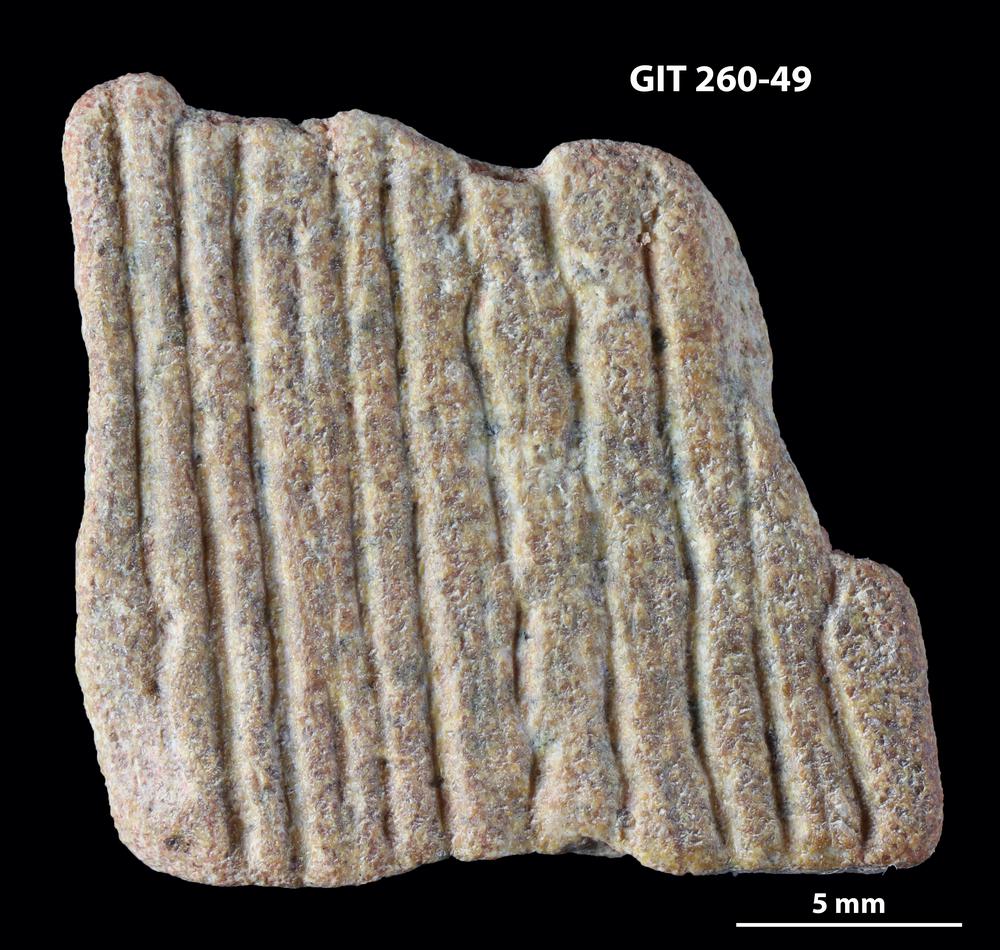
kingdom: Animalia
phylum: Chordata
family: Homostiidae
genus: Homostius
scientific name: Homostius
